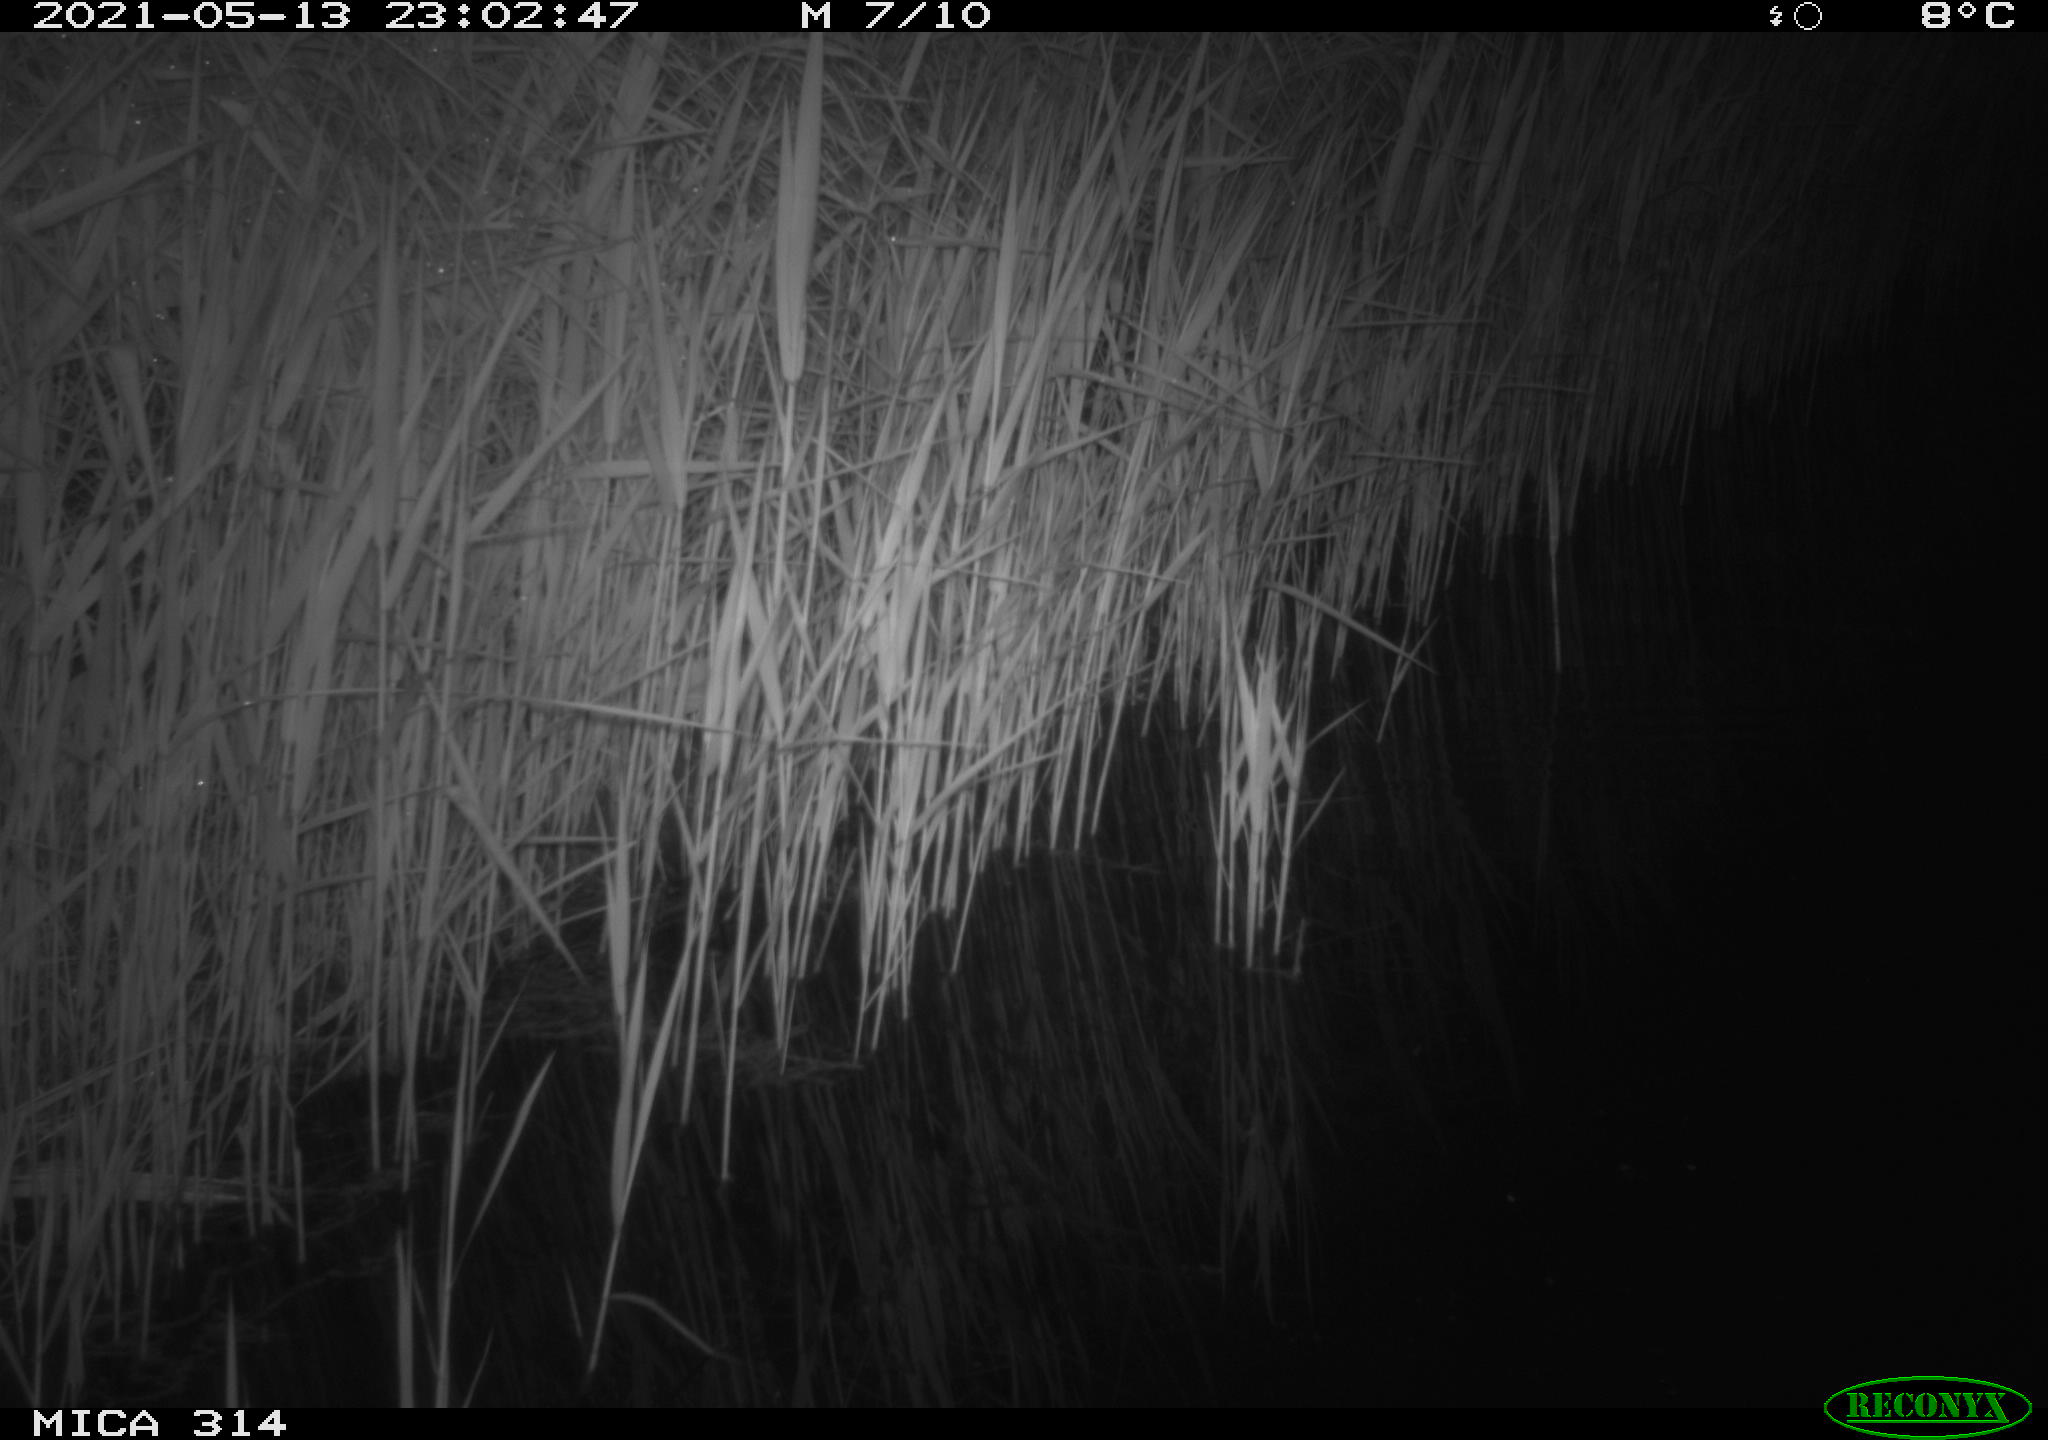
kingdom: Animalia
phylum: Chordata
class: Aves
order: Anseriformes
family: Anatidae
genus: Anas
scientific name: Anas platyrhynchos
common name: Mallard
